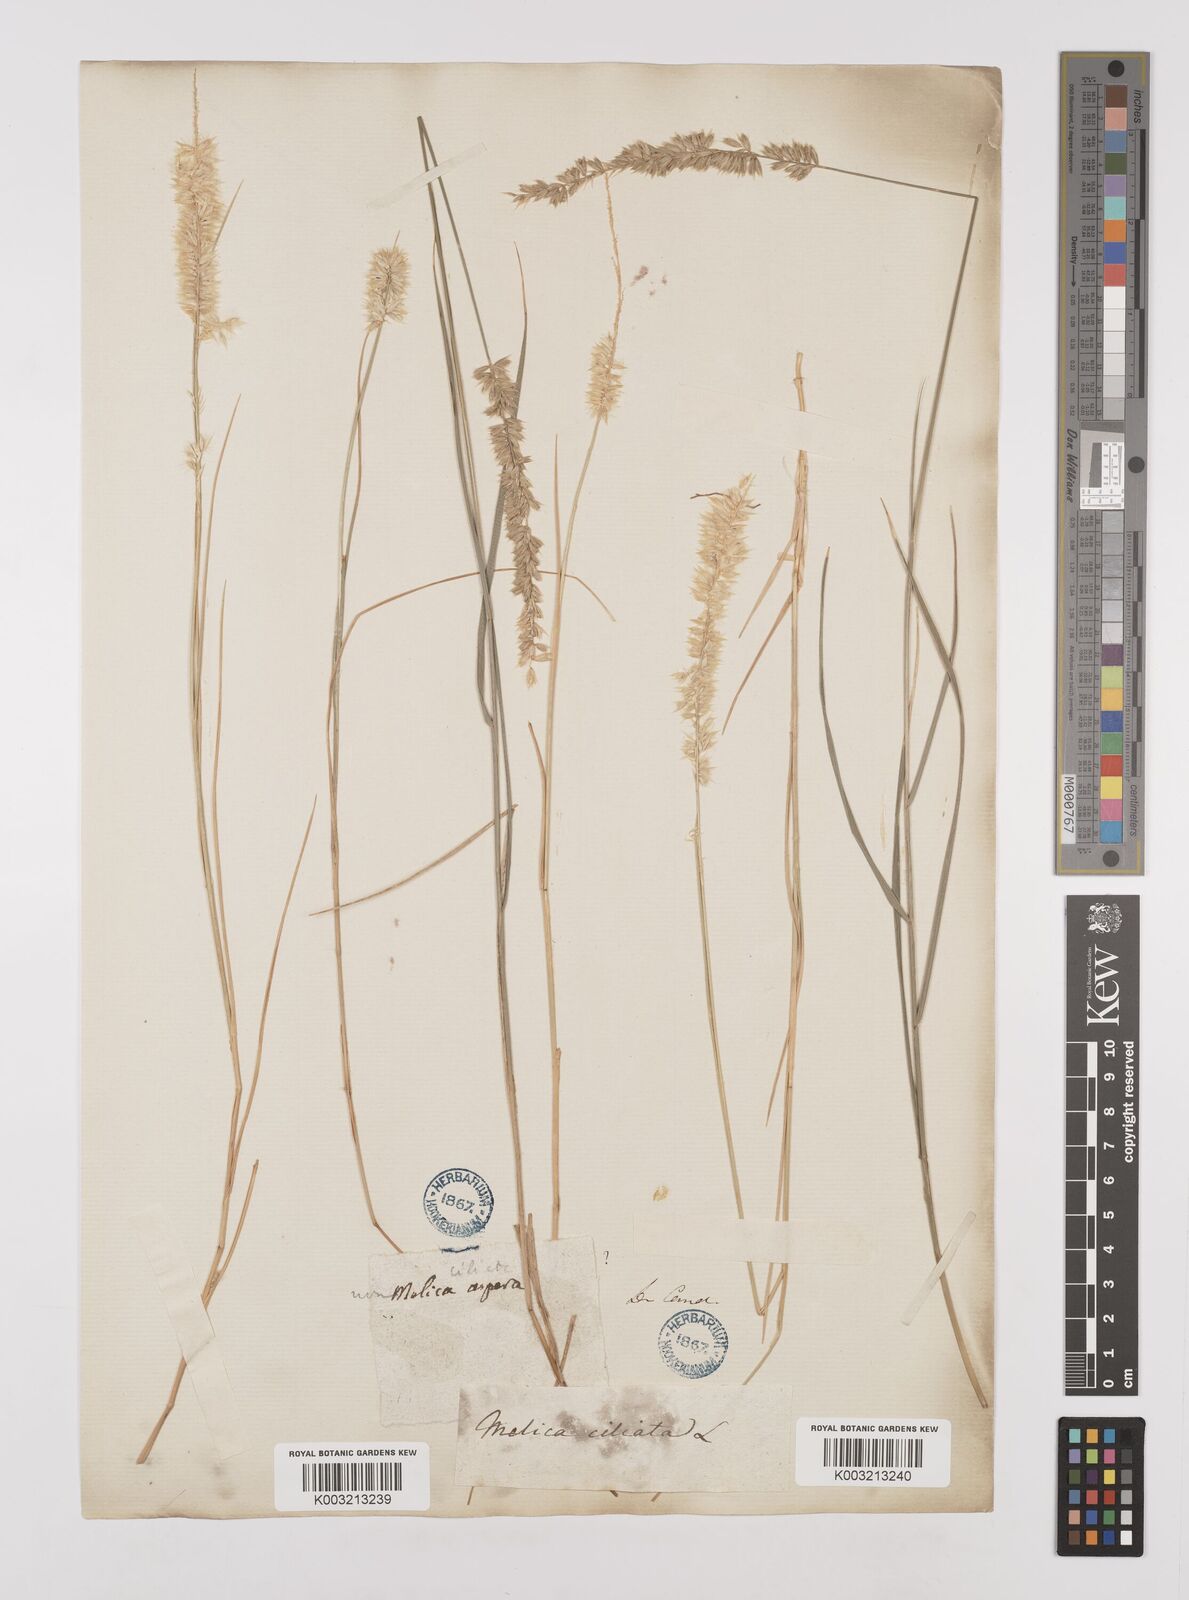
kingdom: Plantae
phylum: Tracheophyta
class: Liliopsida
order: Poales
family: Poaceae
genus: Melica
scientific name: Melica ciliata
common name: Hairy melicgrass
